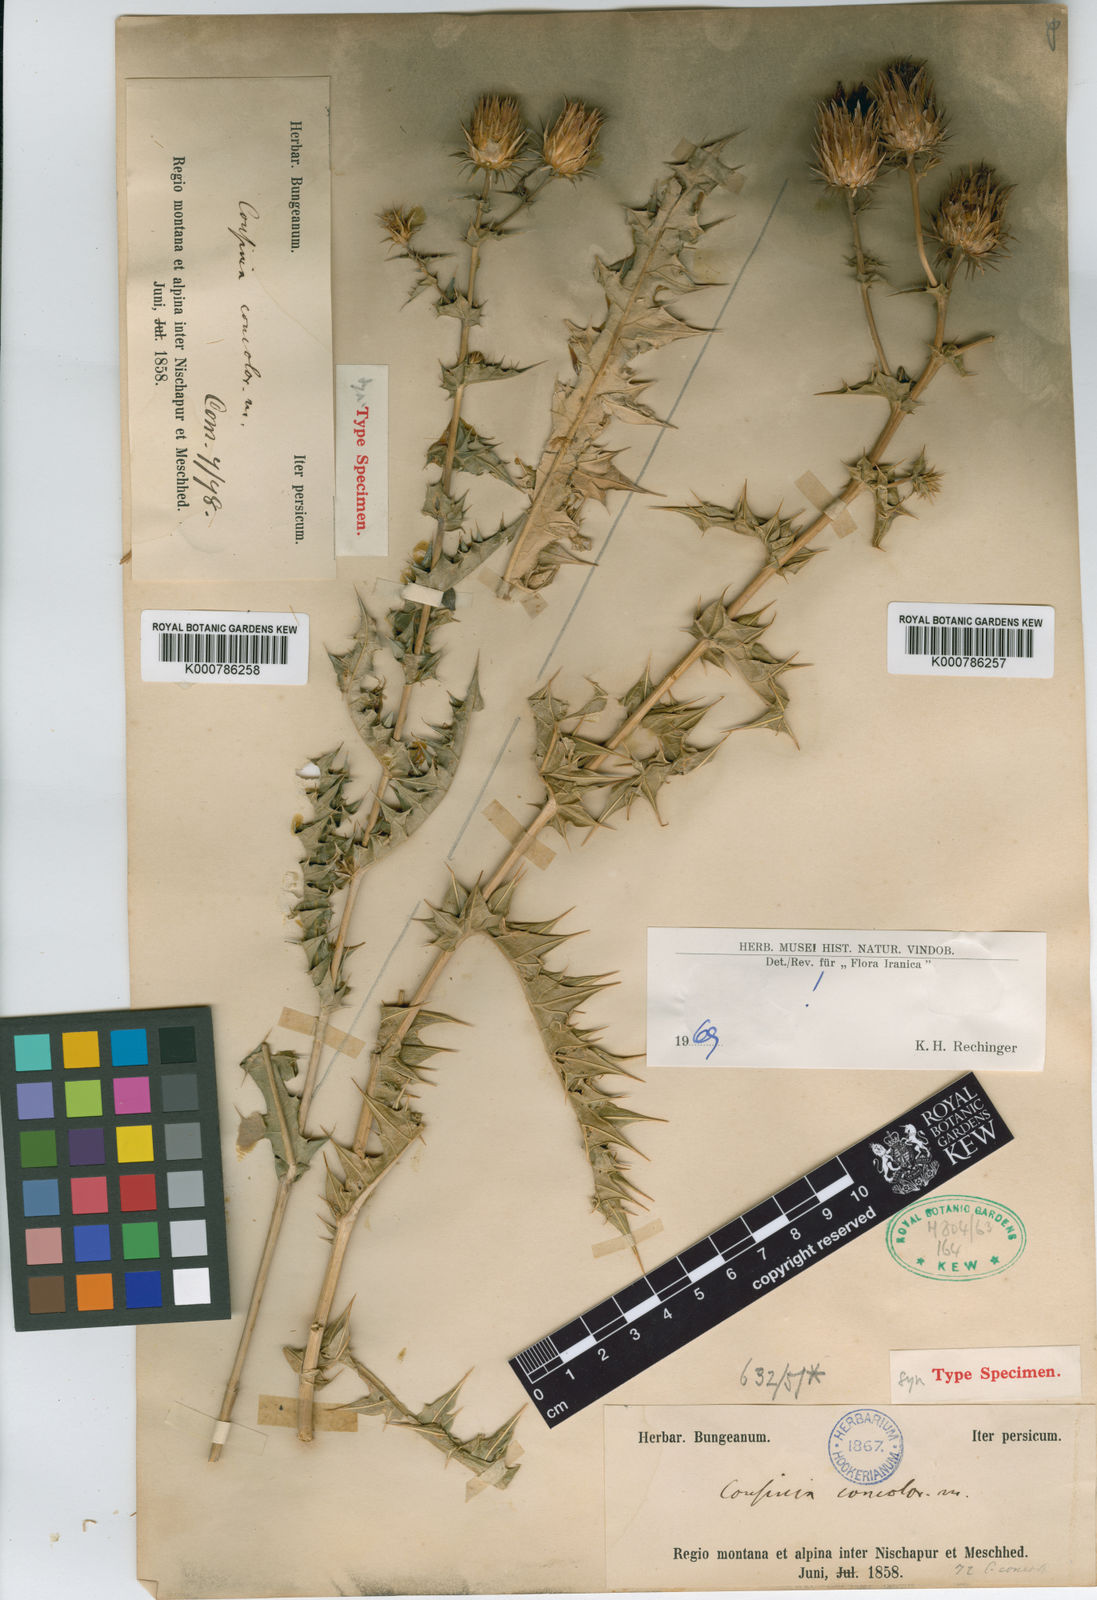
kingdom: Plantae
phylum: Tracheophyta
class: Magnoliopsida
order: Asterales
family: Asteraceae
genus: Cousinia
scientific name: Cousinia concolor
